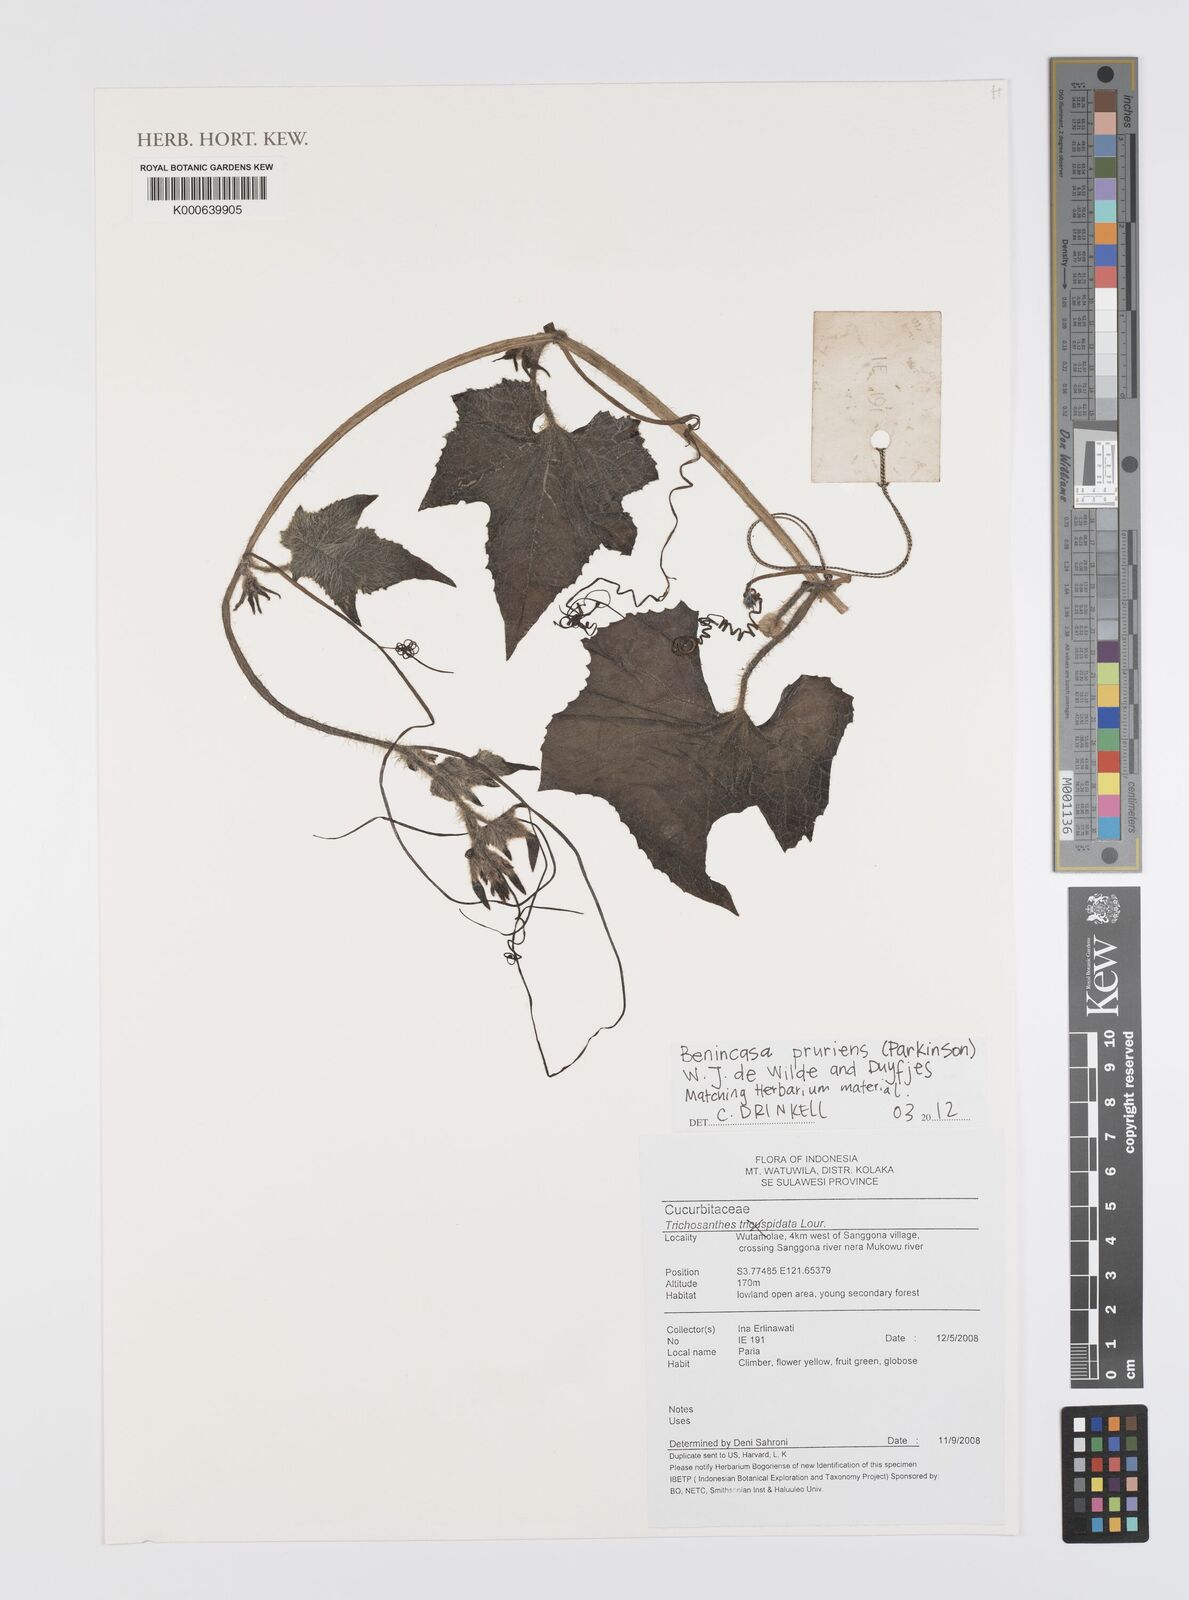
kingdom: Plantae
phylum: Tracheophyta
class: Magnoliopsida
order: Cucurbitales
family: Cucurbitaceae
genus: Benincasa
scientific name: Benincasa
